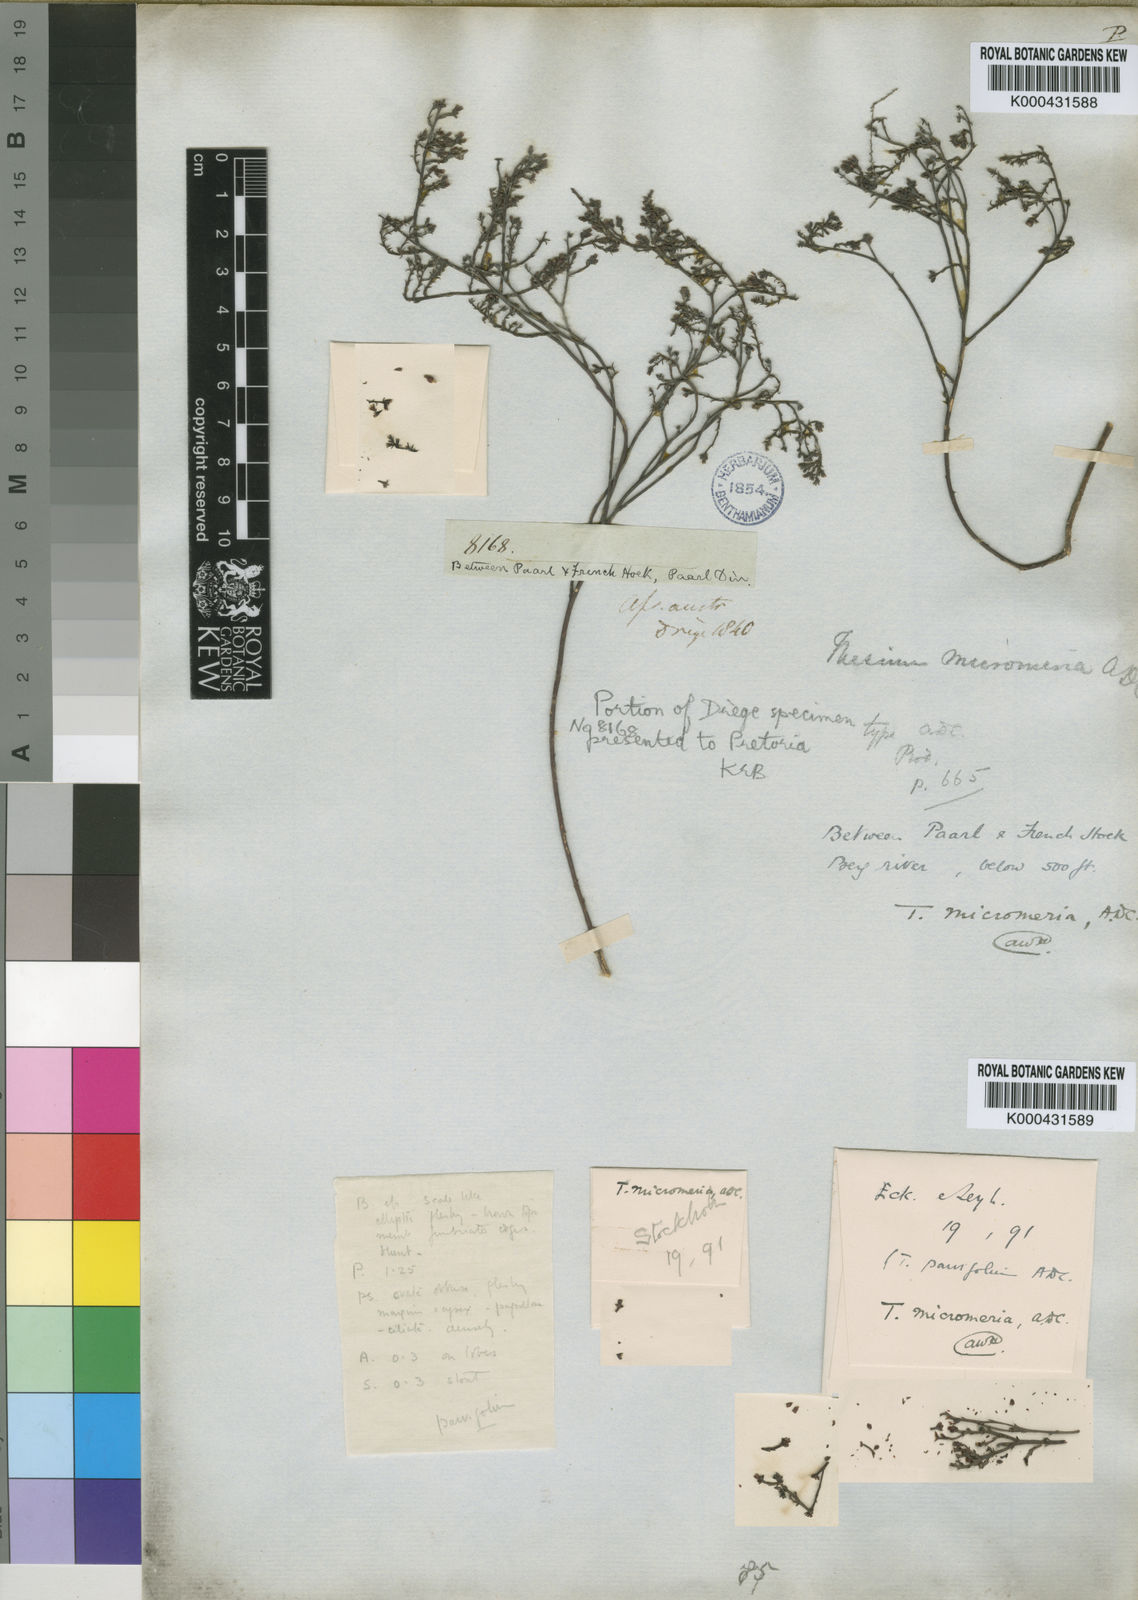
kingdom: Plantae
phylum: Tracheophyta
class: Magnoliopsida
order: Santalales
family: Thesiaceae
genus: Thesium
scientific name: Thesium micromeria
